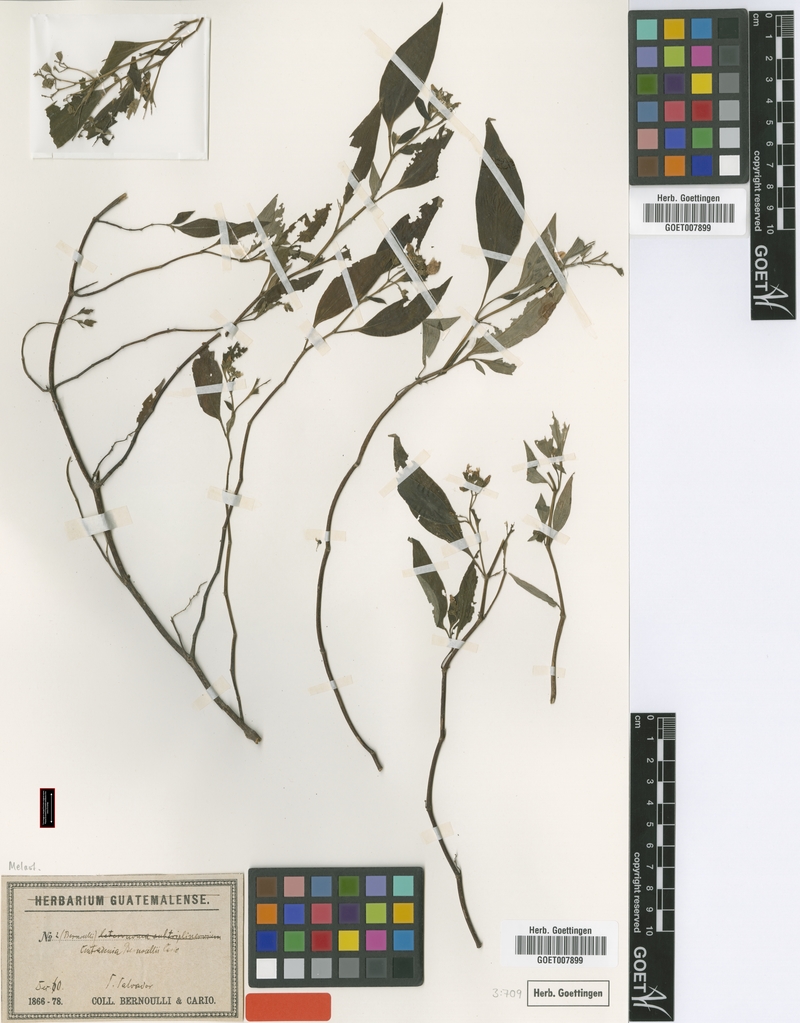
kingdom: Plantae
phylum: Tracheophyta
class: Magnoliopsida
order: Myrtales
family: Melastomataceae
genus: Centradenia
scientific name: Centradenia floribunda
